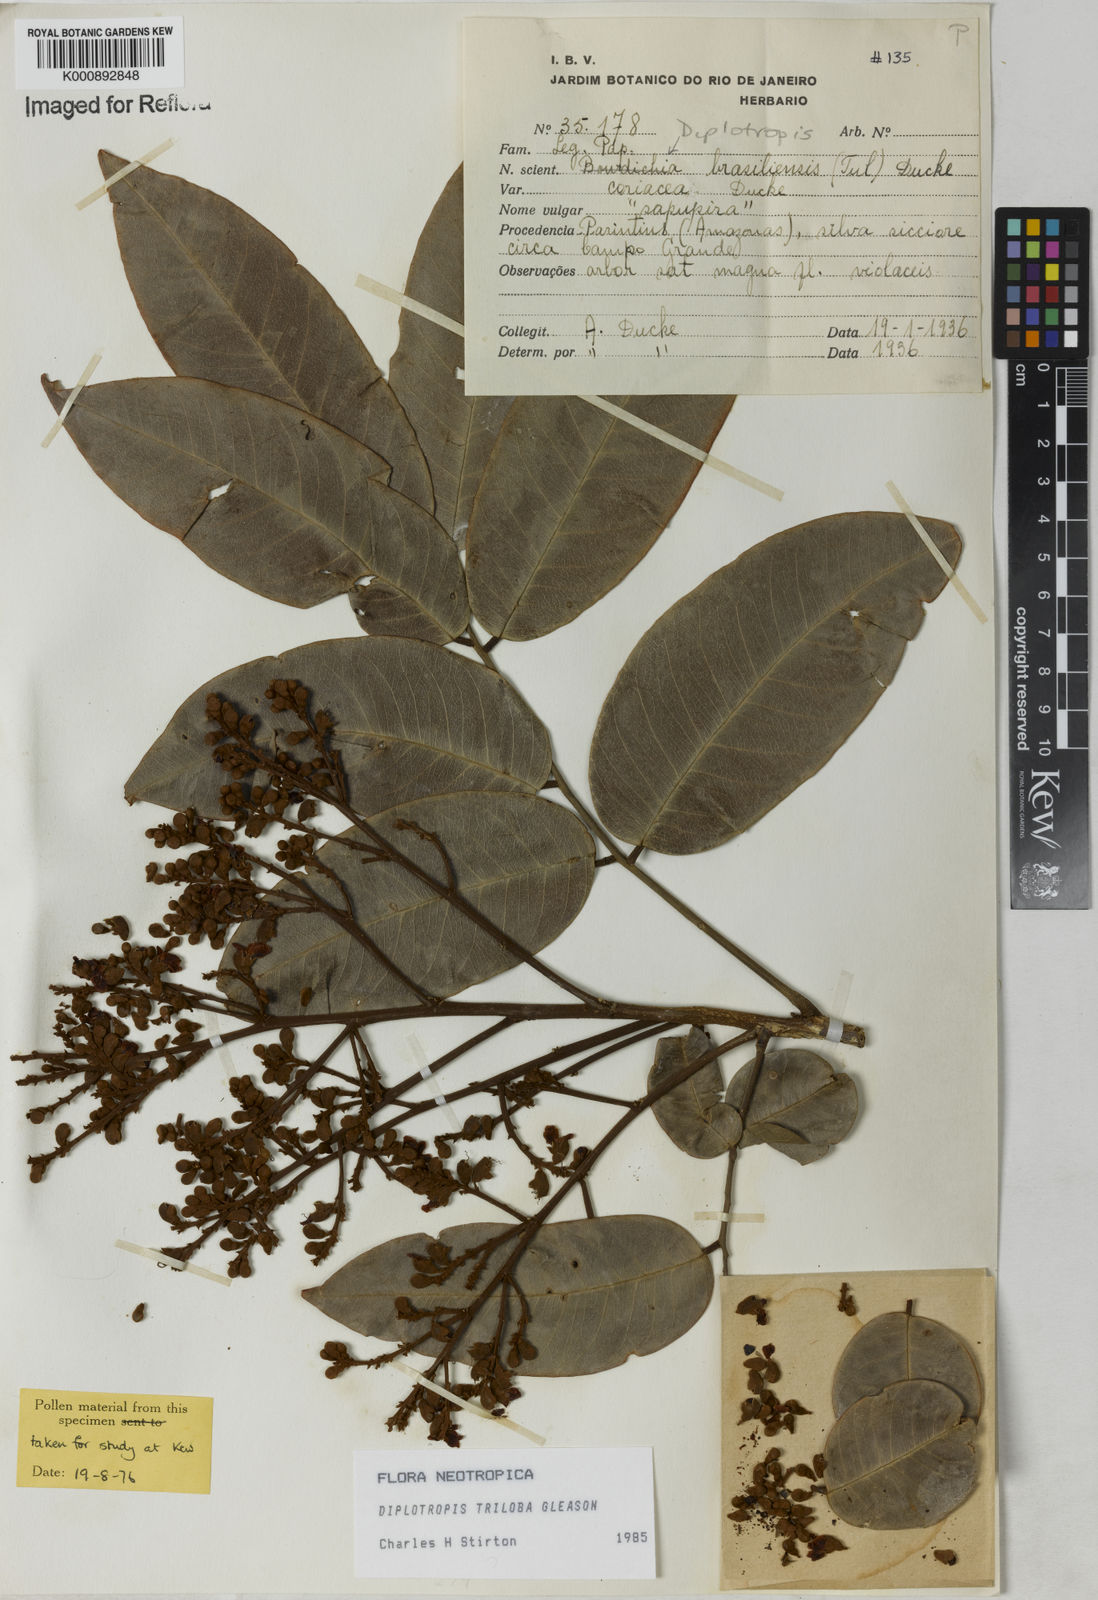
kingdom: Plantae
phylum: Tracheophyta
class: Magnoliopsida
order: Fabales
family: Fabaceae
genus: Diplotropis
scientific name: Diplotropis triloba
